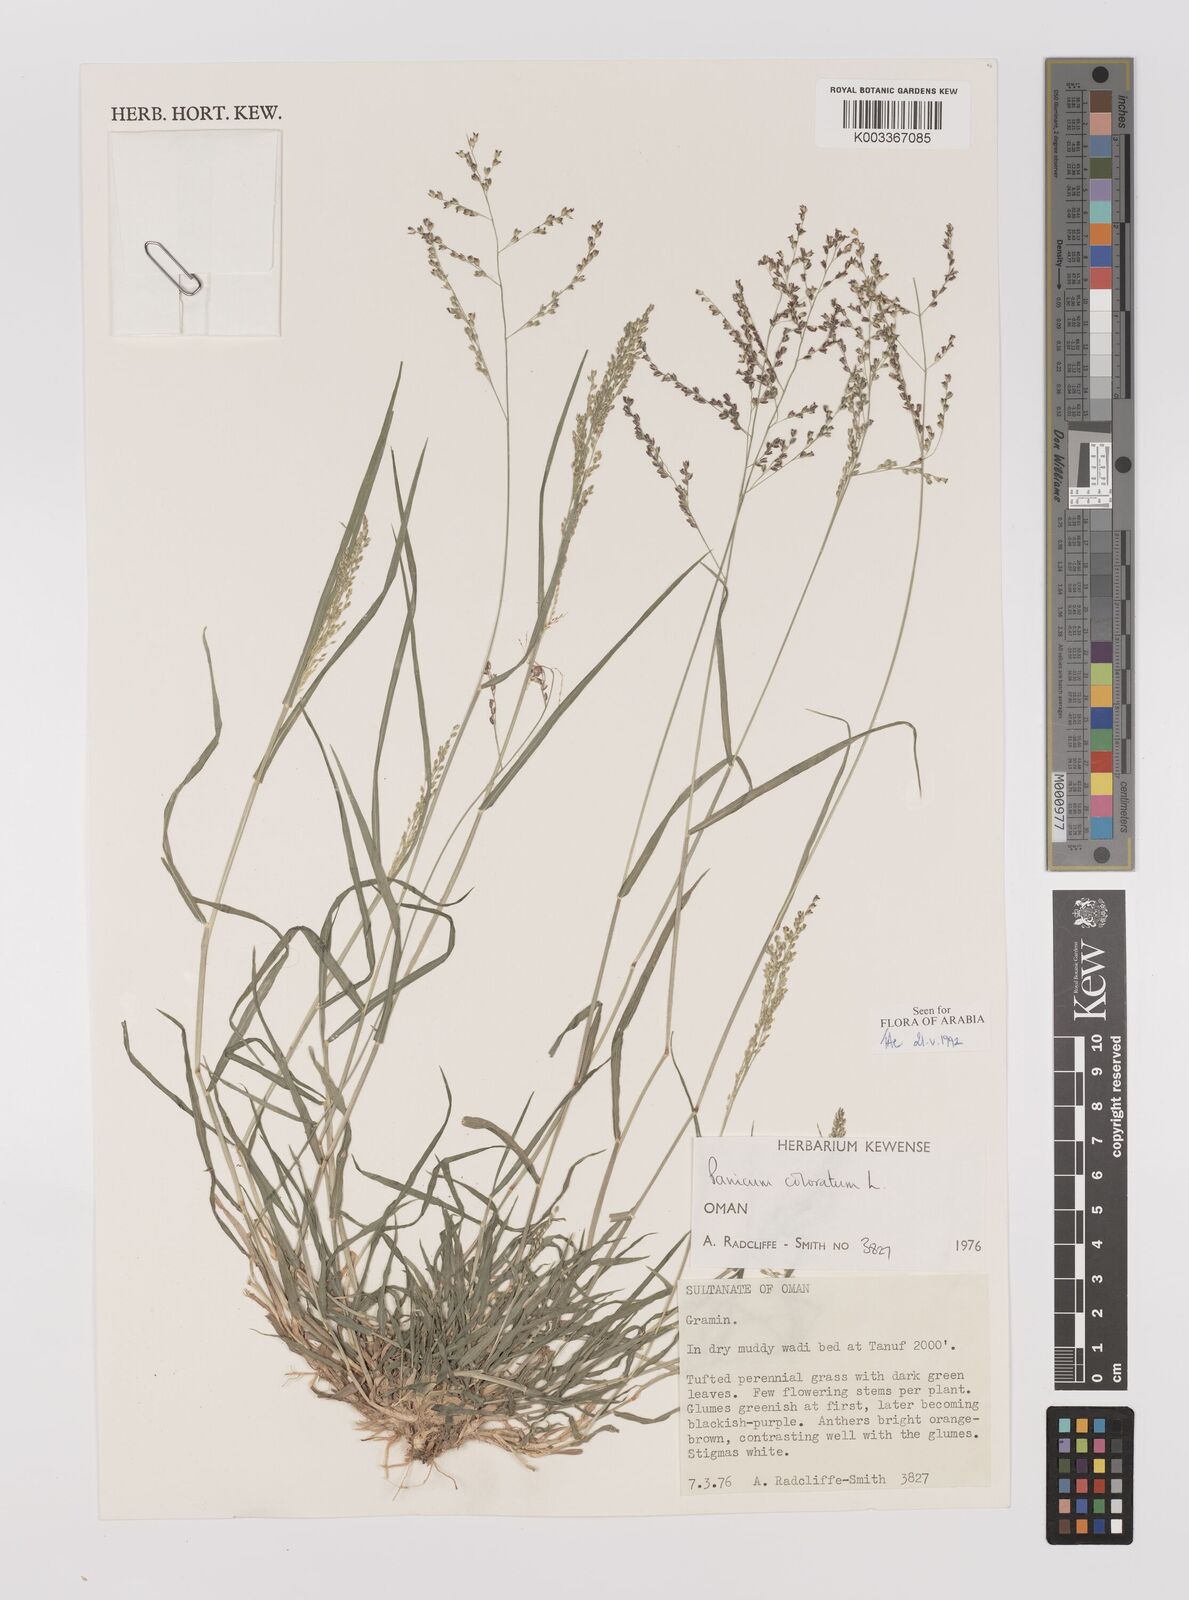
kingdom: Plantae
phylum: Tracheophyta
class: Liliopsida
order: Poales
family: Poaceae
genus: Panicum
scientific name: Panicum coloratum
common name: Kleingrass
